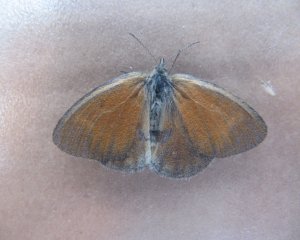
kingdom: Animalia
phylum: Arthropoda
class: Insecta
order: Lepidoptera
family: Nymphalidae
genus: Coenonympha
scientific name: Coenonympha tullia
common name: Large Heath
